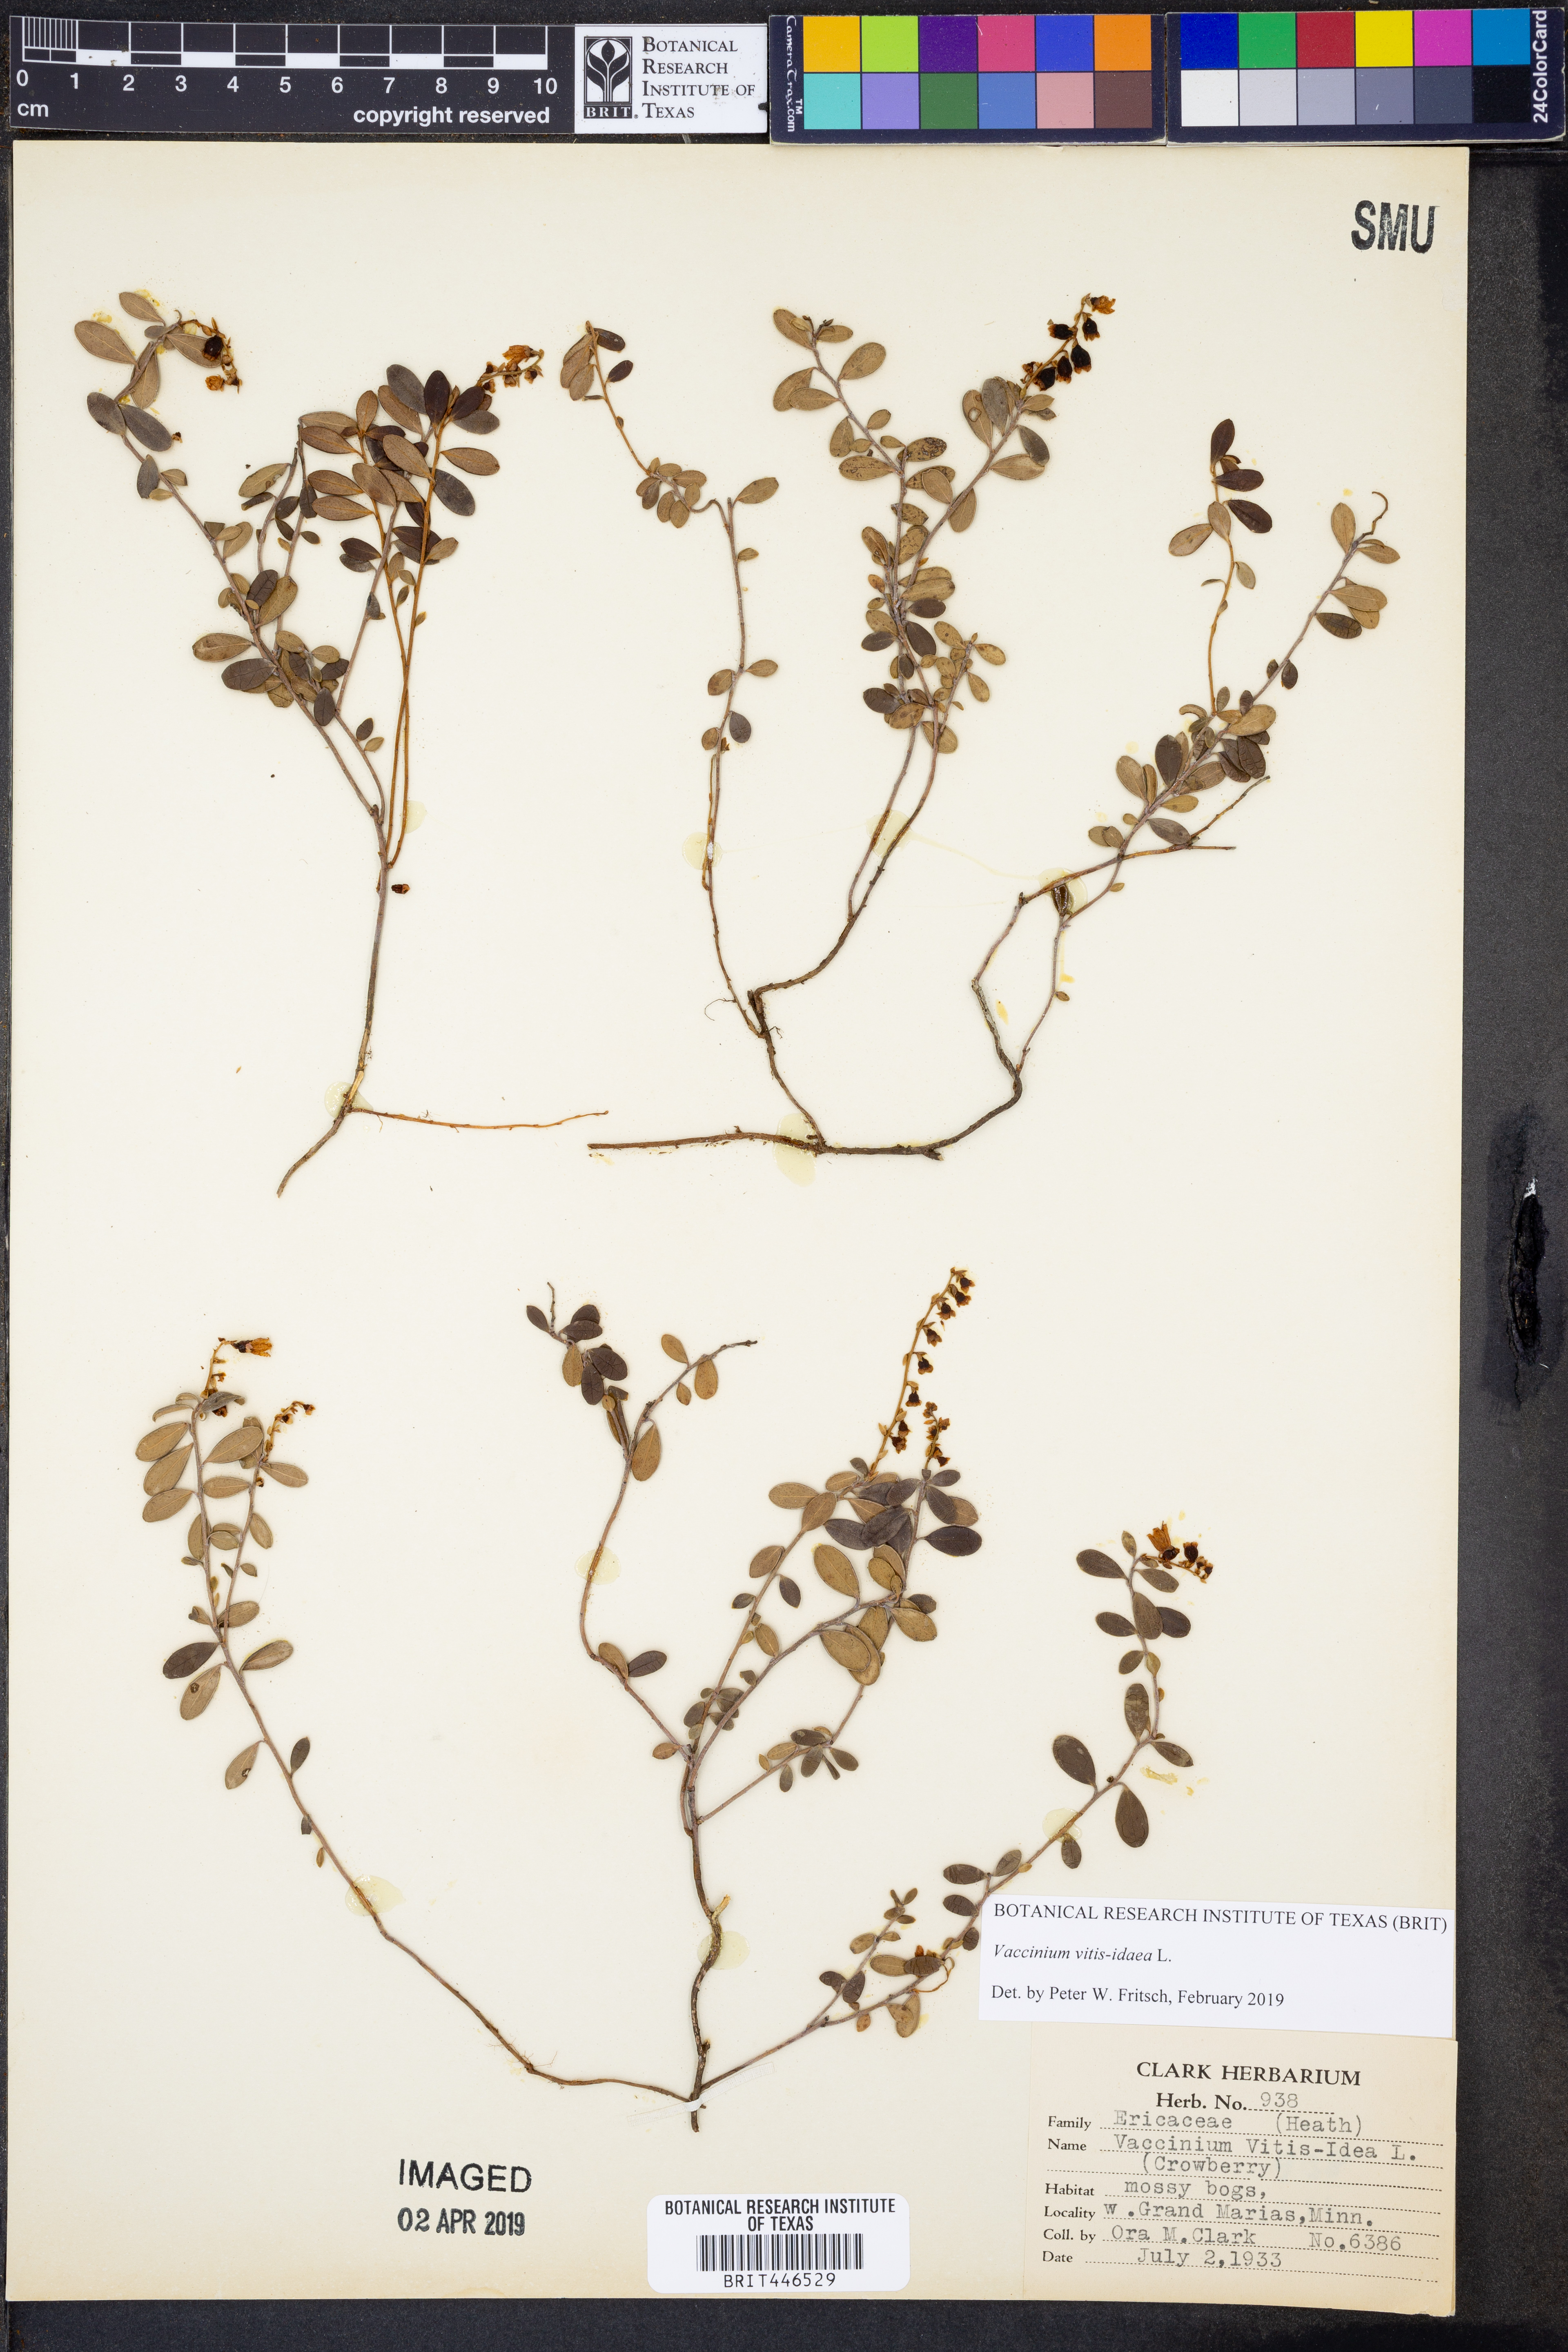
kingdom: Plantae
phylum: Tracheophyta
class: Magnoliopsida
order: Ericales
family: Ericaceae
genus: Vaccinium
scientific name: Vaccinium vitis-idaea
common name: Cowberry
